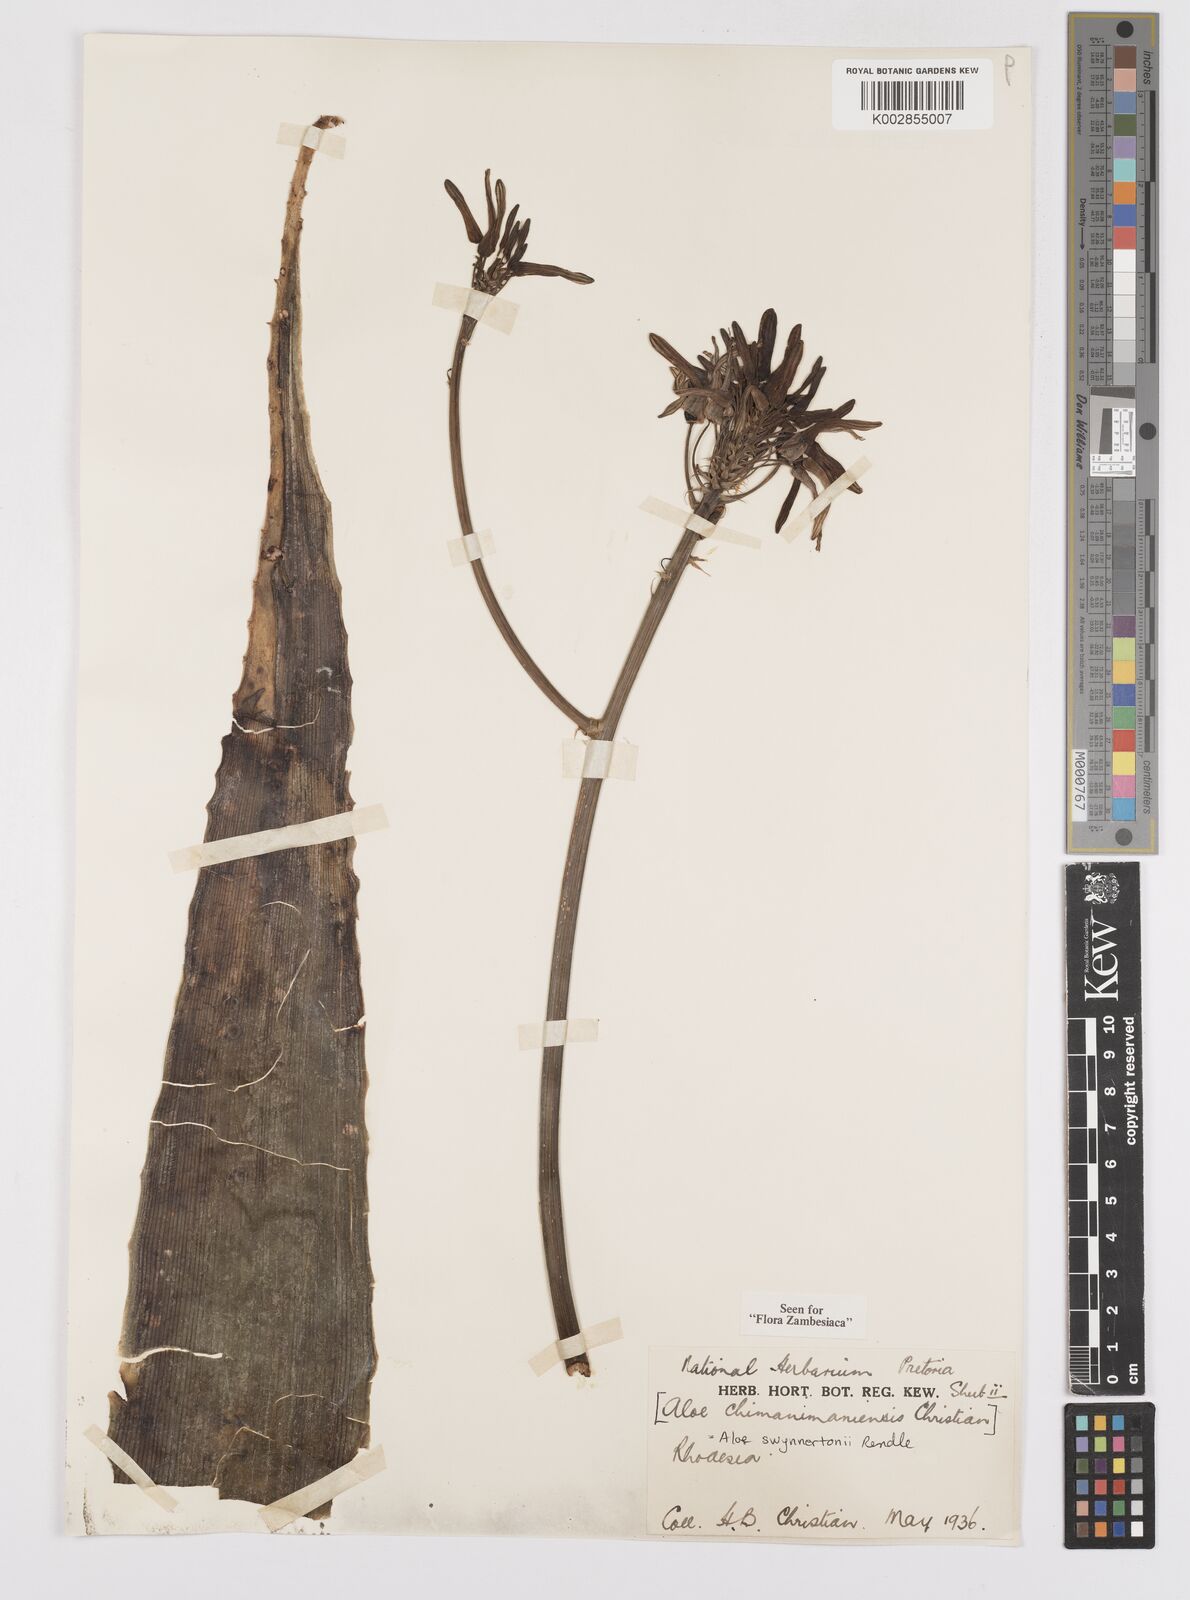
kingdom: Plantae
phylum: Tracheophyta
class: Liliopsida
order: Asparagales
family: Asphodelaceae
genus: Aloe
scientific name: Aloe swynnertonii
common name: Swynnerton's aloe
